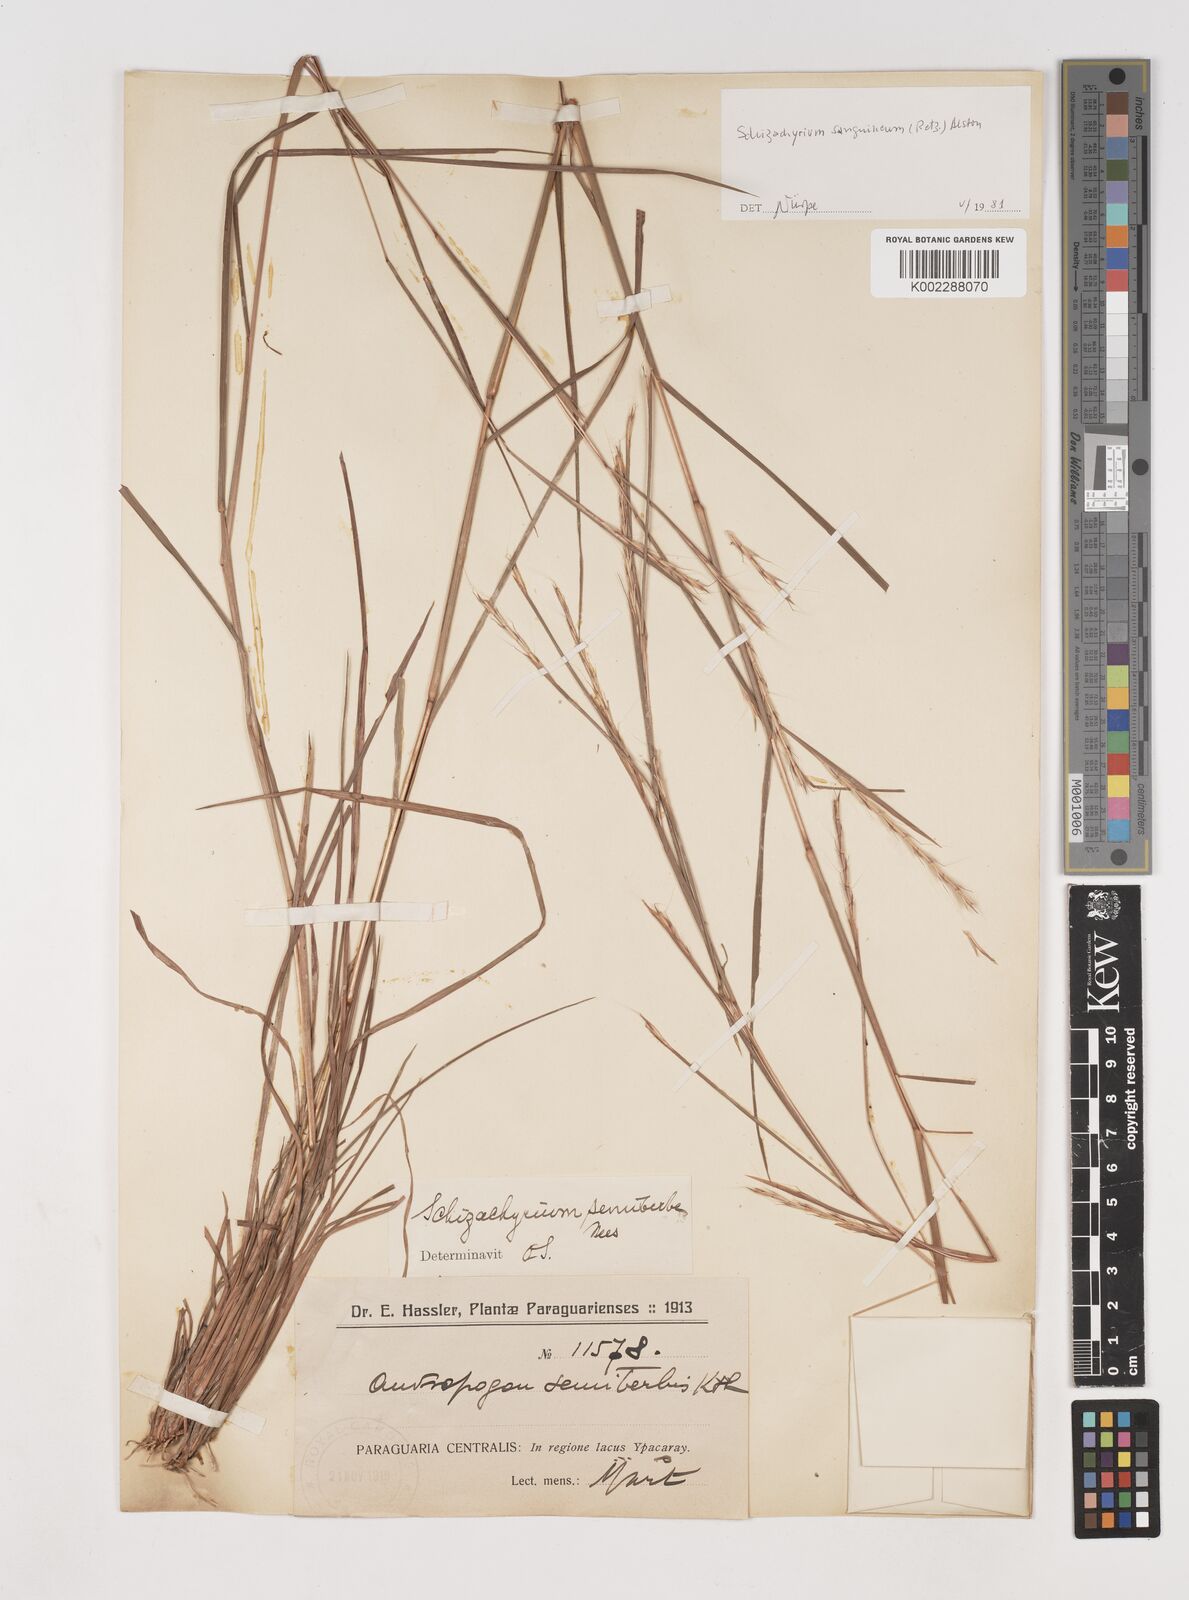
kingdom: Plantae
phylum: Tracheophyta
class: Liliopsida
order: Poales
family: Poaceae
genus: Schizachyrium
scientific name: Schizachyrium sanguineum
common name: Crimson bluestem
